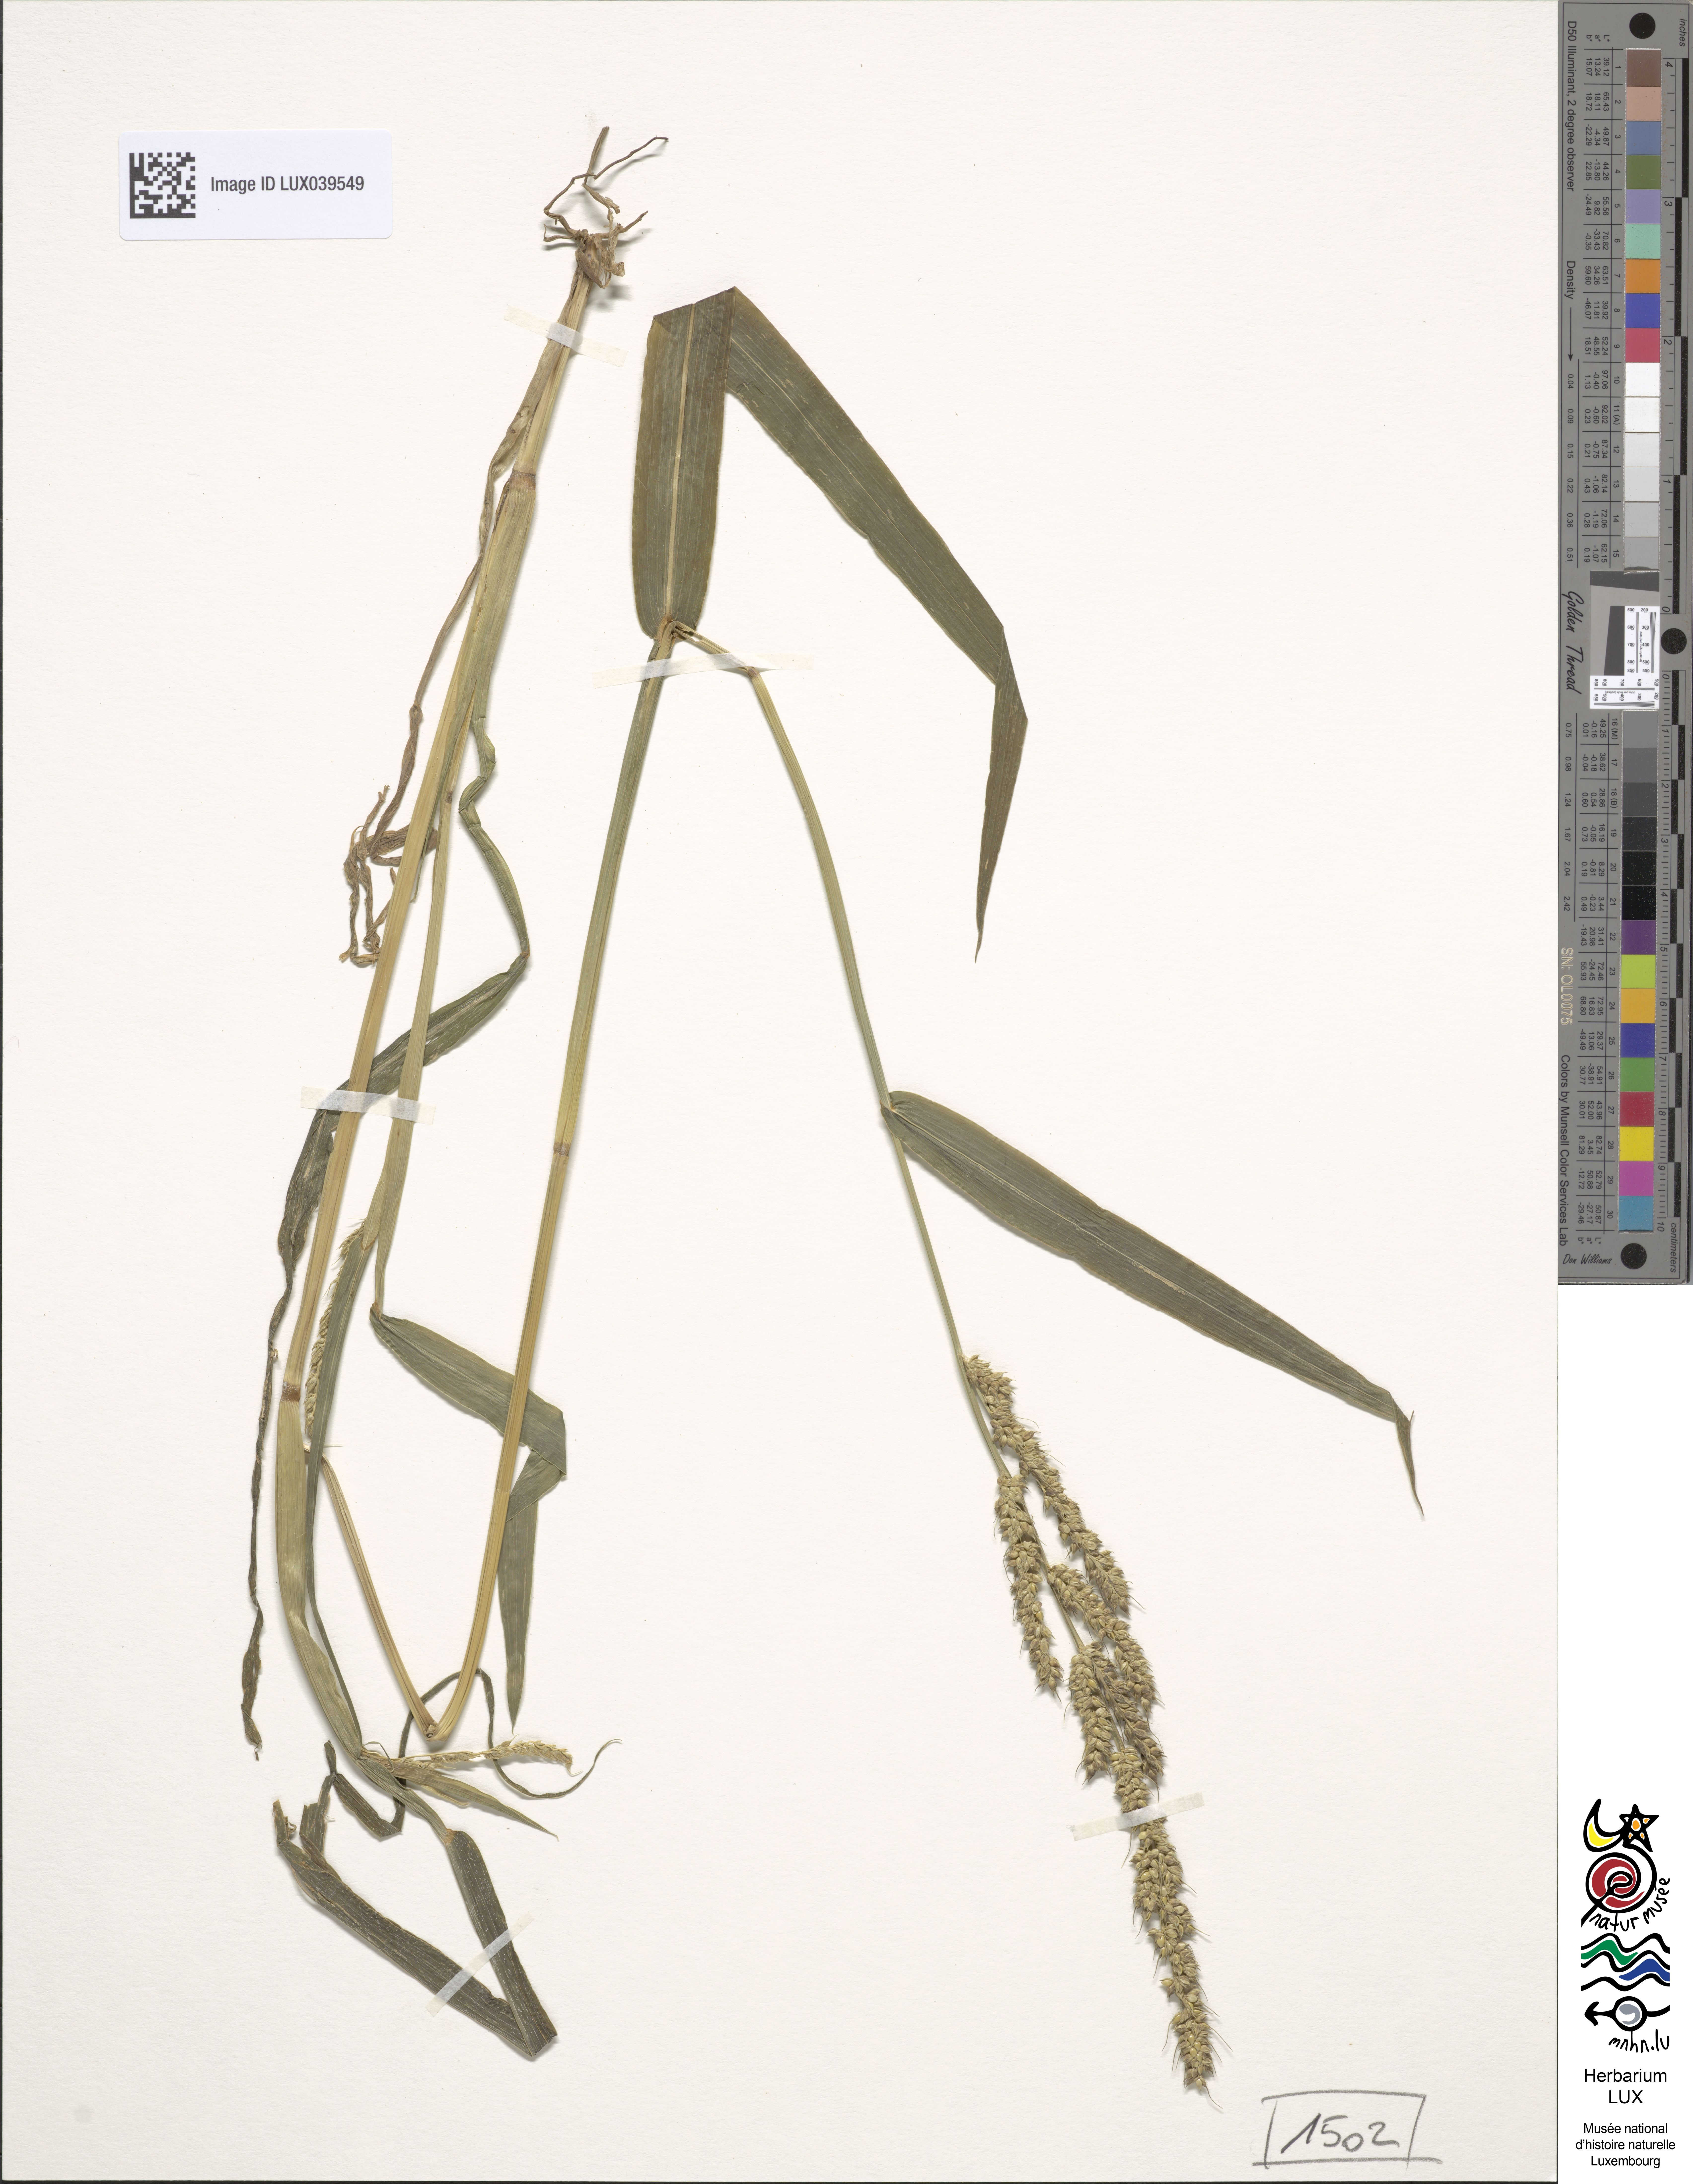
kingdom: Plantae
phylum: Tracheophyta
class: Liliopsida
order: Poales
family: Poaceae
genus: Echinochloa
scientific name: Echinochloa crus-galli
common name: Cockspur
